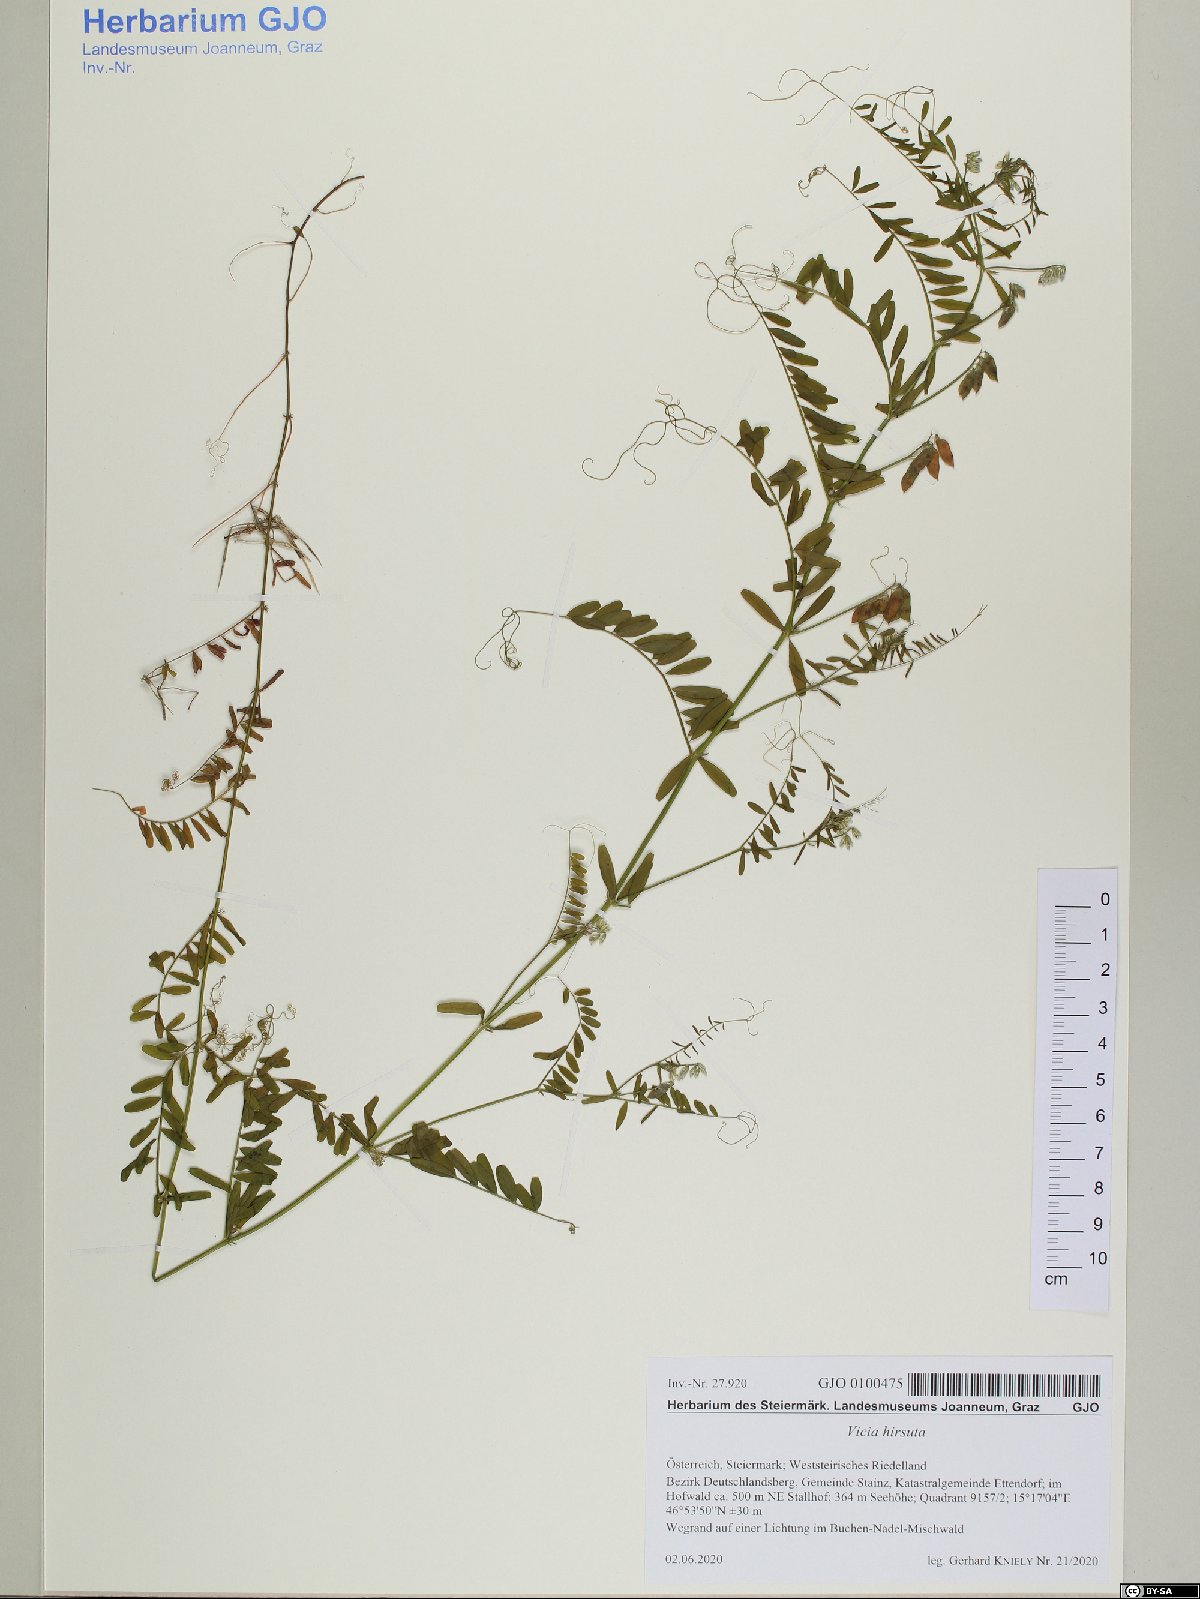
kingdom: Plantae
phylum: Tracheophyta
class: Magnoliopsida
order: Fabales
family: Fabaceae
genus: Vicia
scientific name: Vicia hirsuta
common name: Tiny vetch
